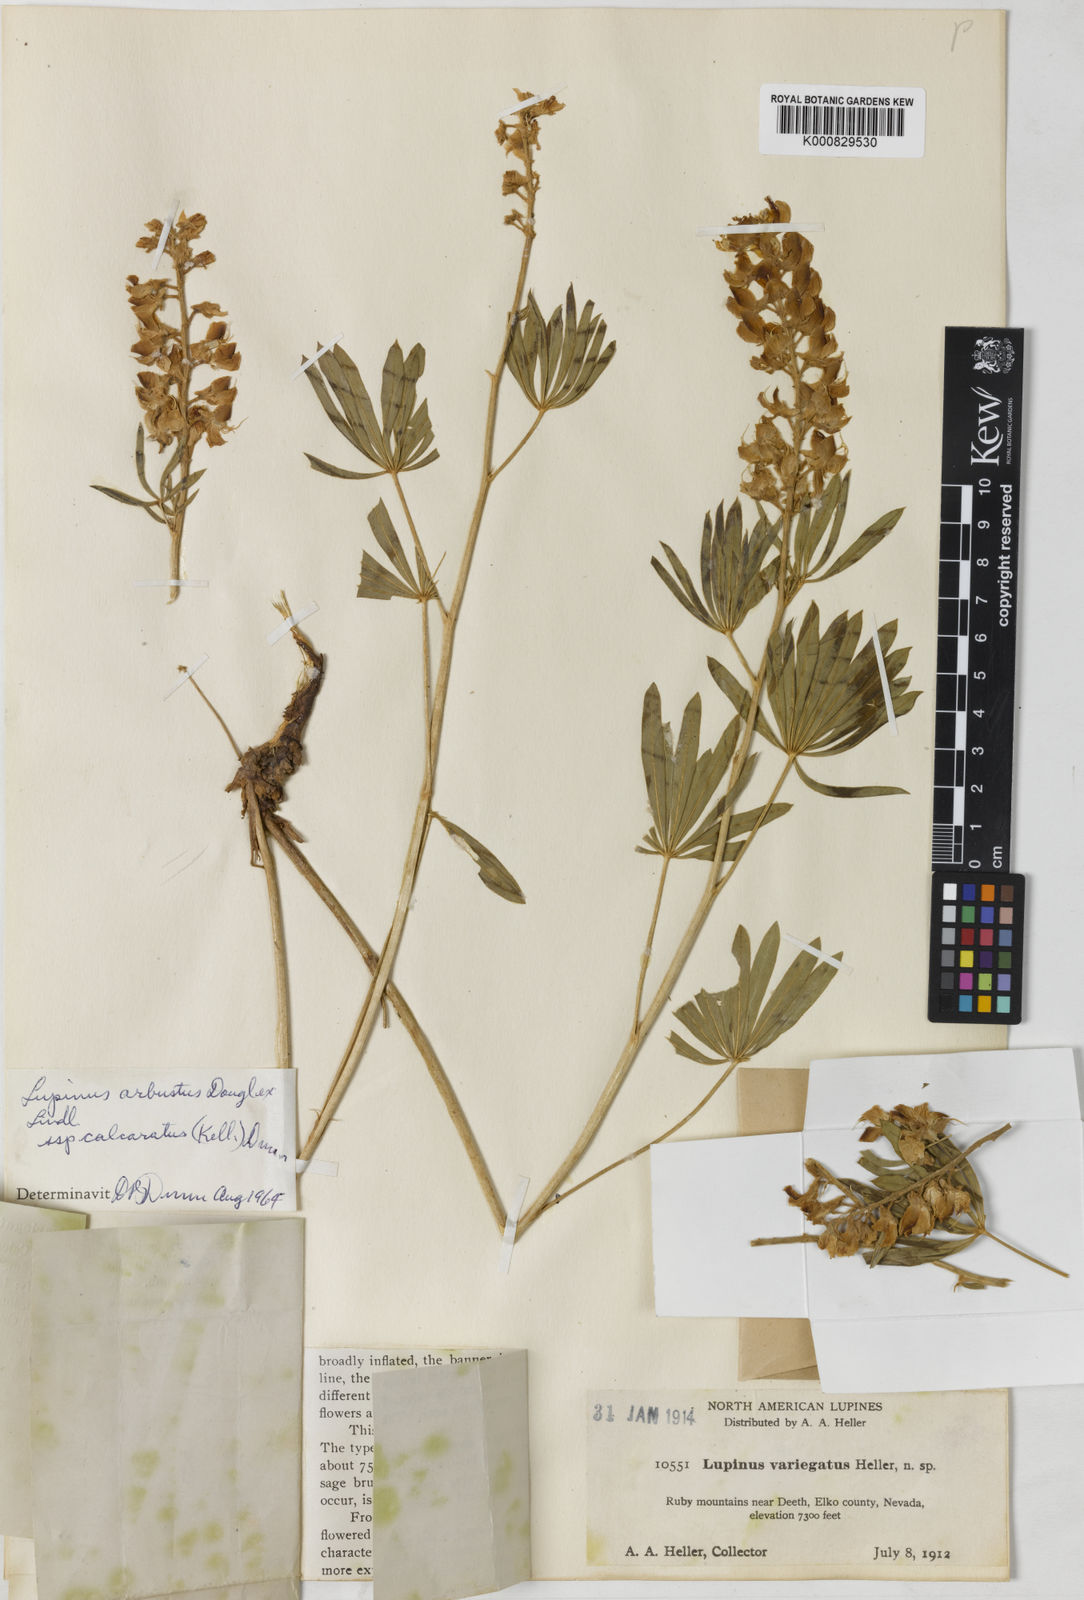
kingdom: Plantae
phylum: Tracheophyta
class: Magnoliopsida
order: Fabales
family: Fabaceae
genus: Lupinus
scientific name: Lupinus
